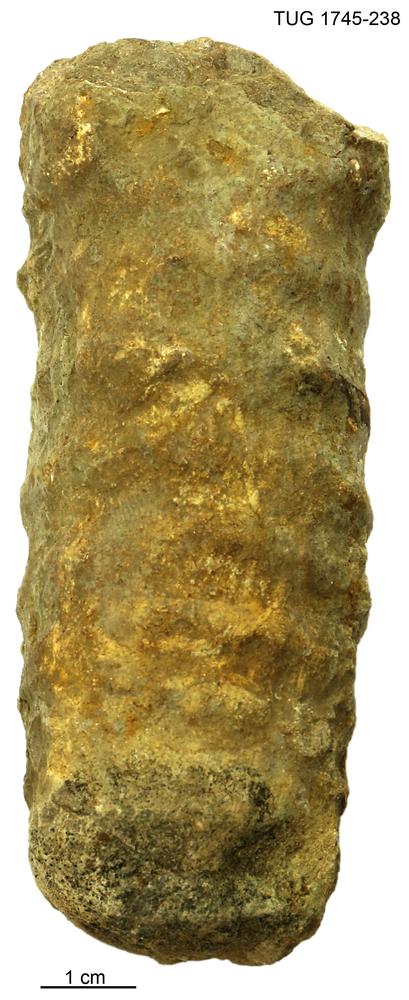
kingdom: Animalia
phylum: Mollusca
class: Cephalopoda
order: Orthocerida
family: Pseudorthoceratidae
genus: Spyroceras
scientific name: Spyroceras textumarenaceum
